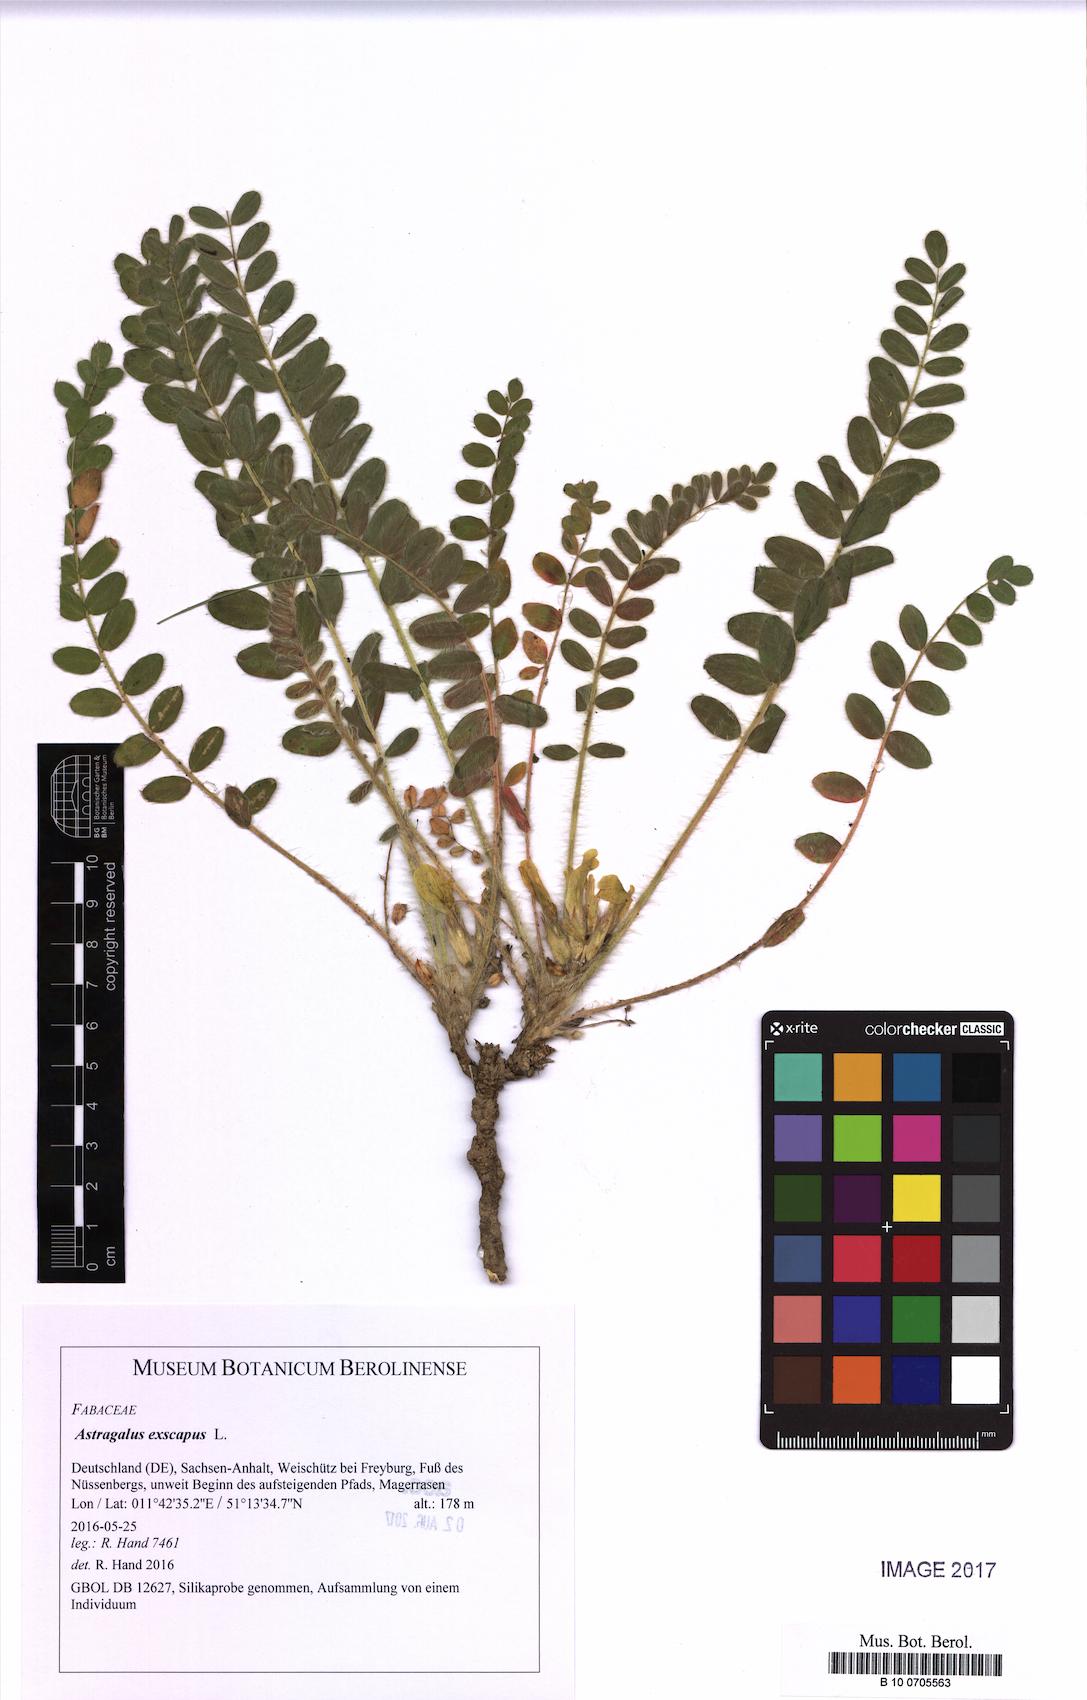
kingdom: Plantae
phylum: Tracheophyta
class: Magnoliopsida
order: Fabales
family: Fabaceae
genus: Astragalus
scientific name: Astragalus exscapus
